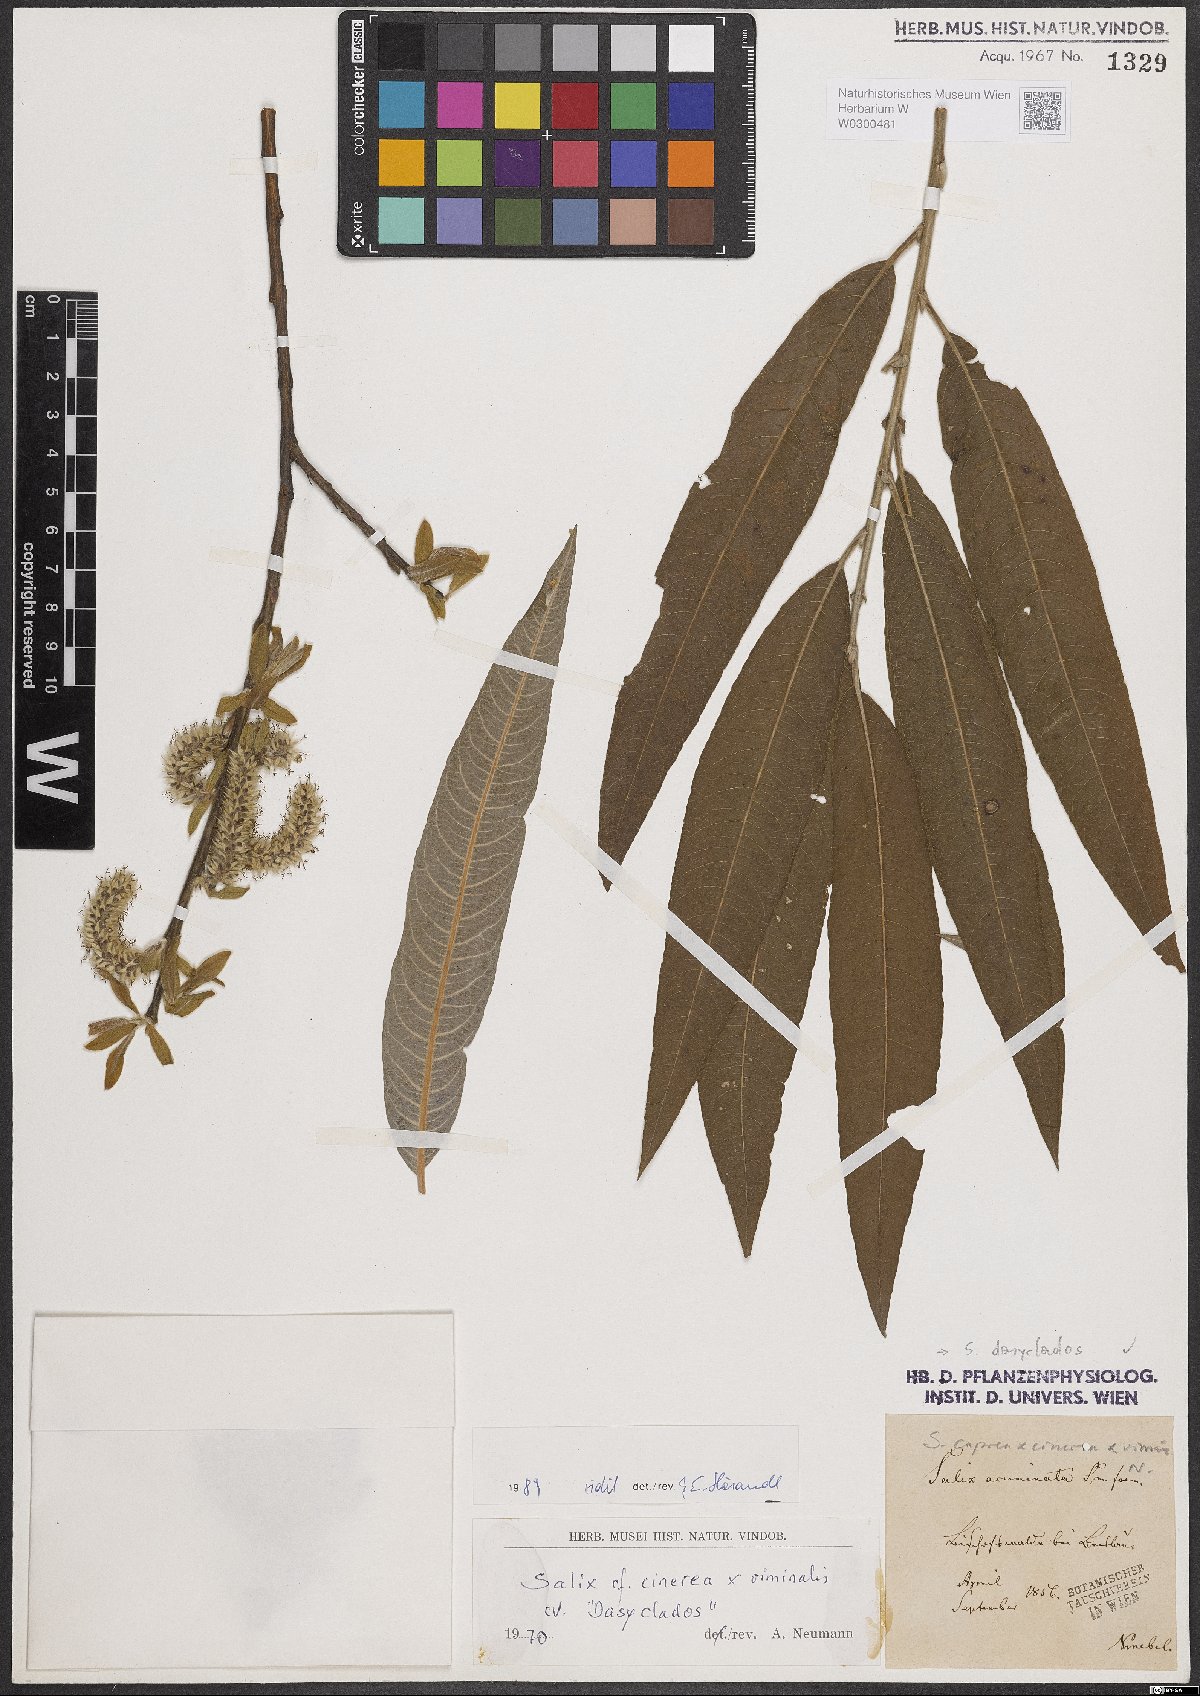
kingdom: Plantae
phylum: Tracheophyta
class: Magnoliopsida
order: Malpighiales
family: Salicaceae
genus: Salix
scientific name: Salix gmelinii
